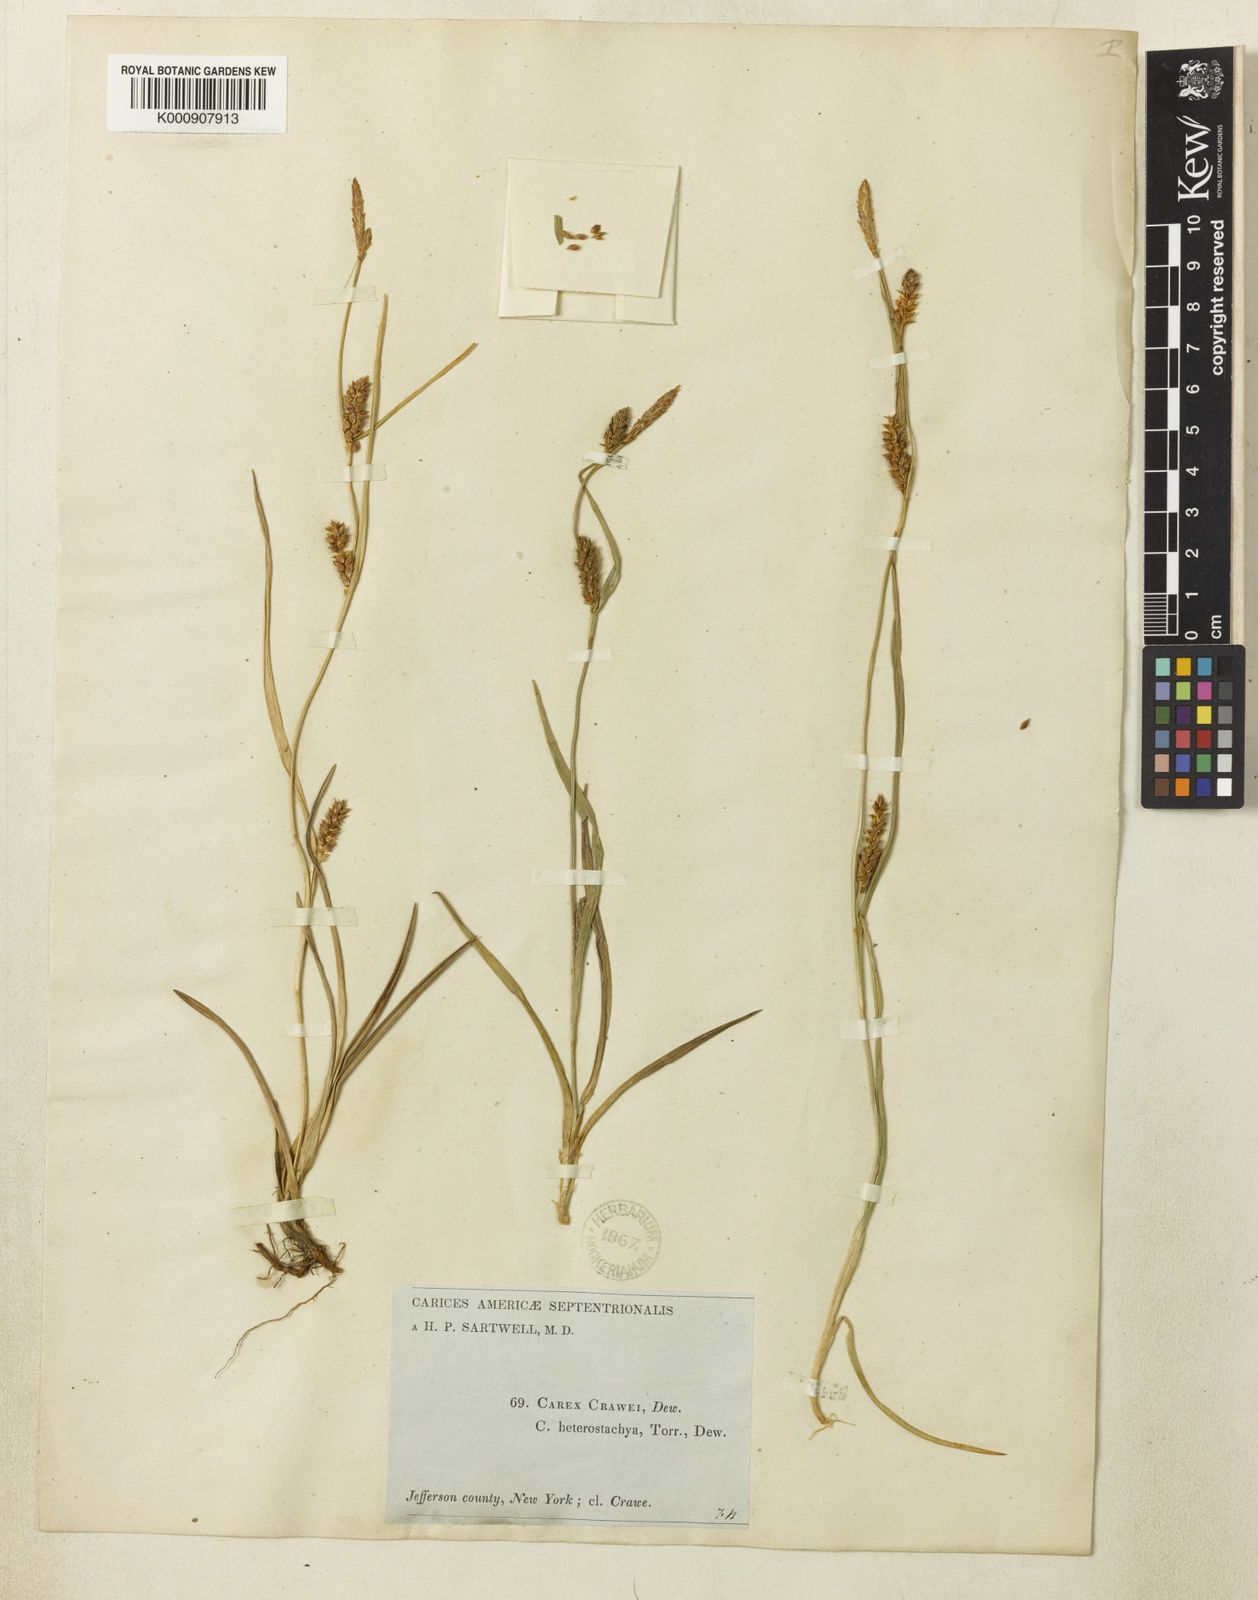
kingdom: Plantae
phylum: Tracheophyta
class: Liliopsida
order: Poales
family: Cyperaceae
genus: Carex
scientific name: Carex crawei
